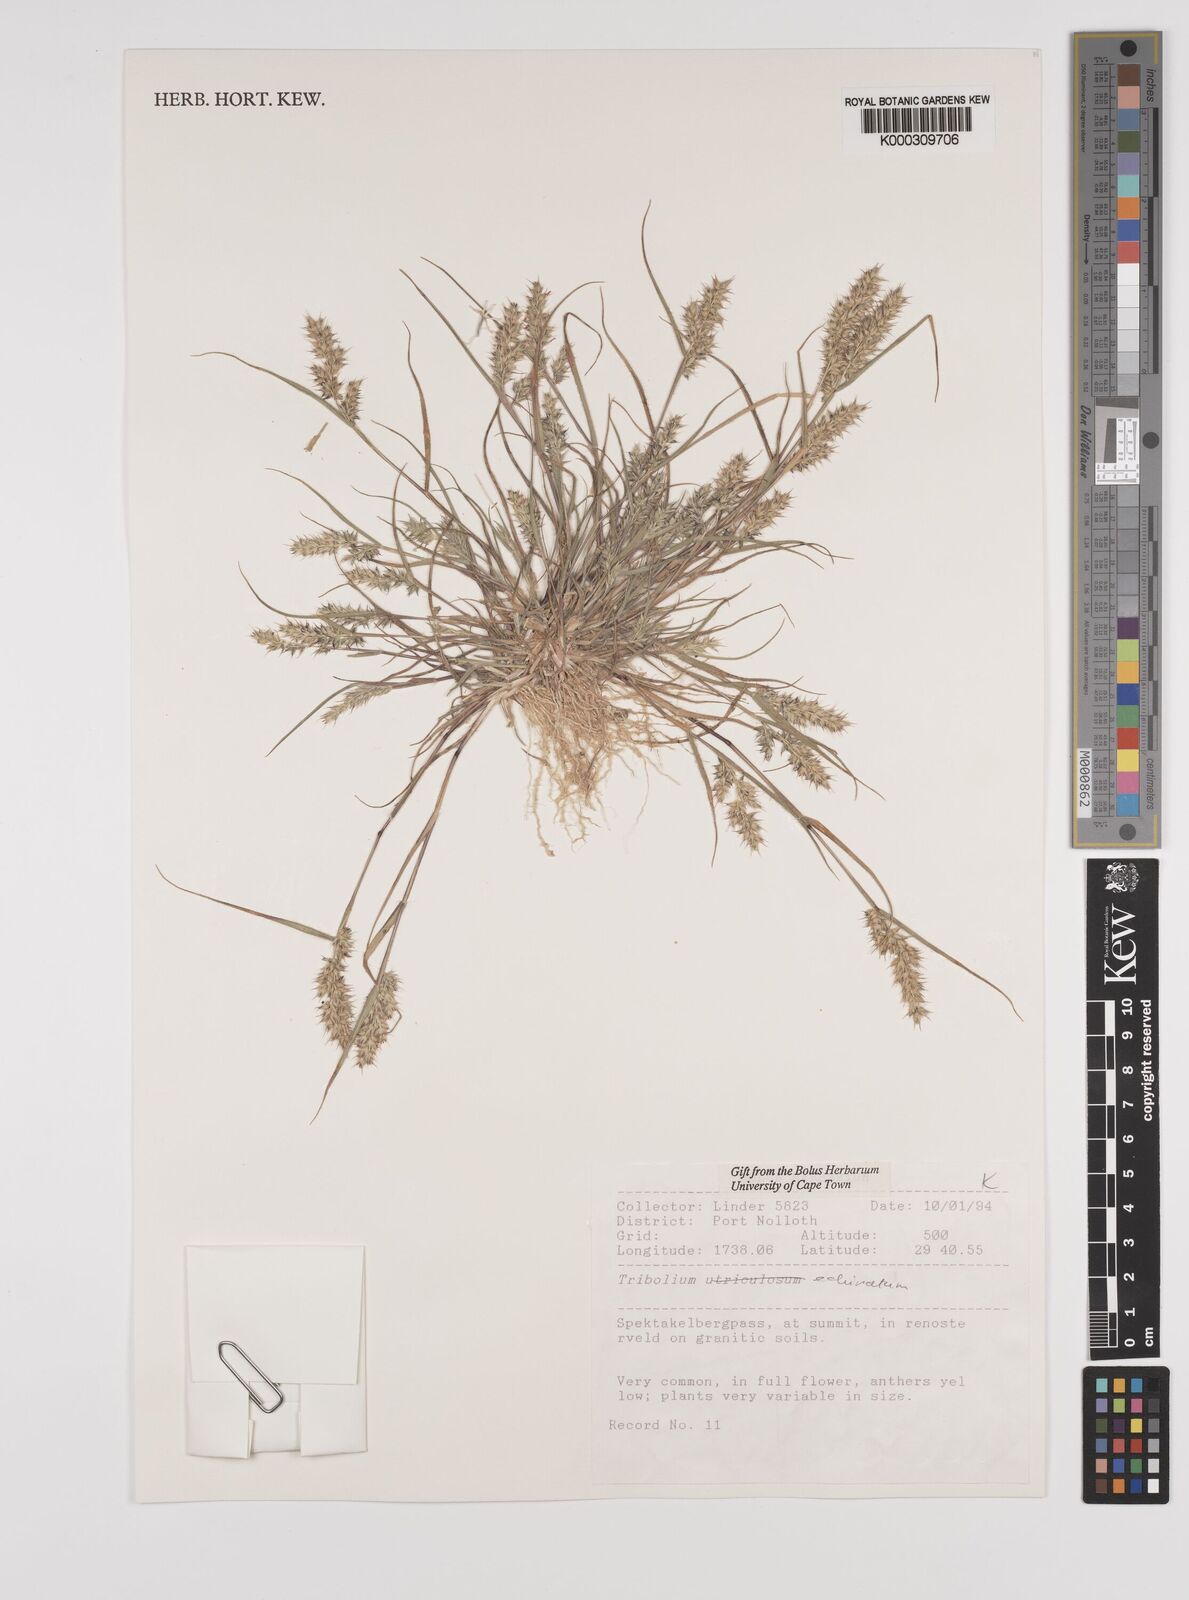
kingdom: Plantae
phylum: Tracheophyta
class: Liliopsida
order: Poales
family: Poaceae
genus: Tribolium
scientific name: Tribolium echinatum
